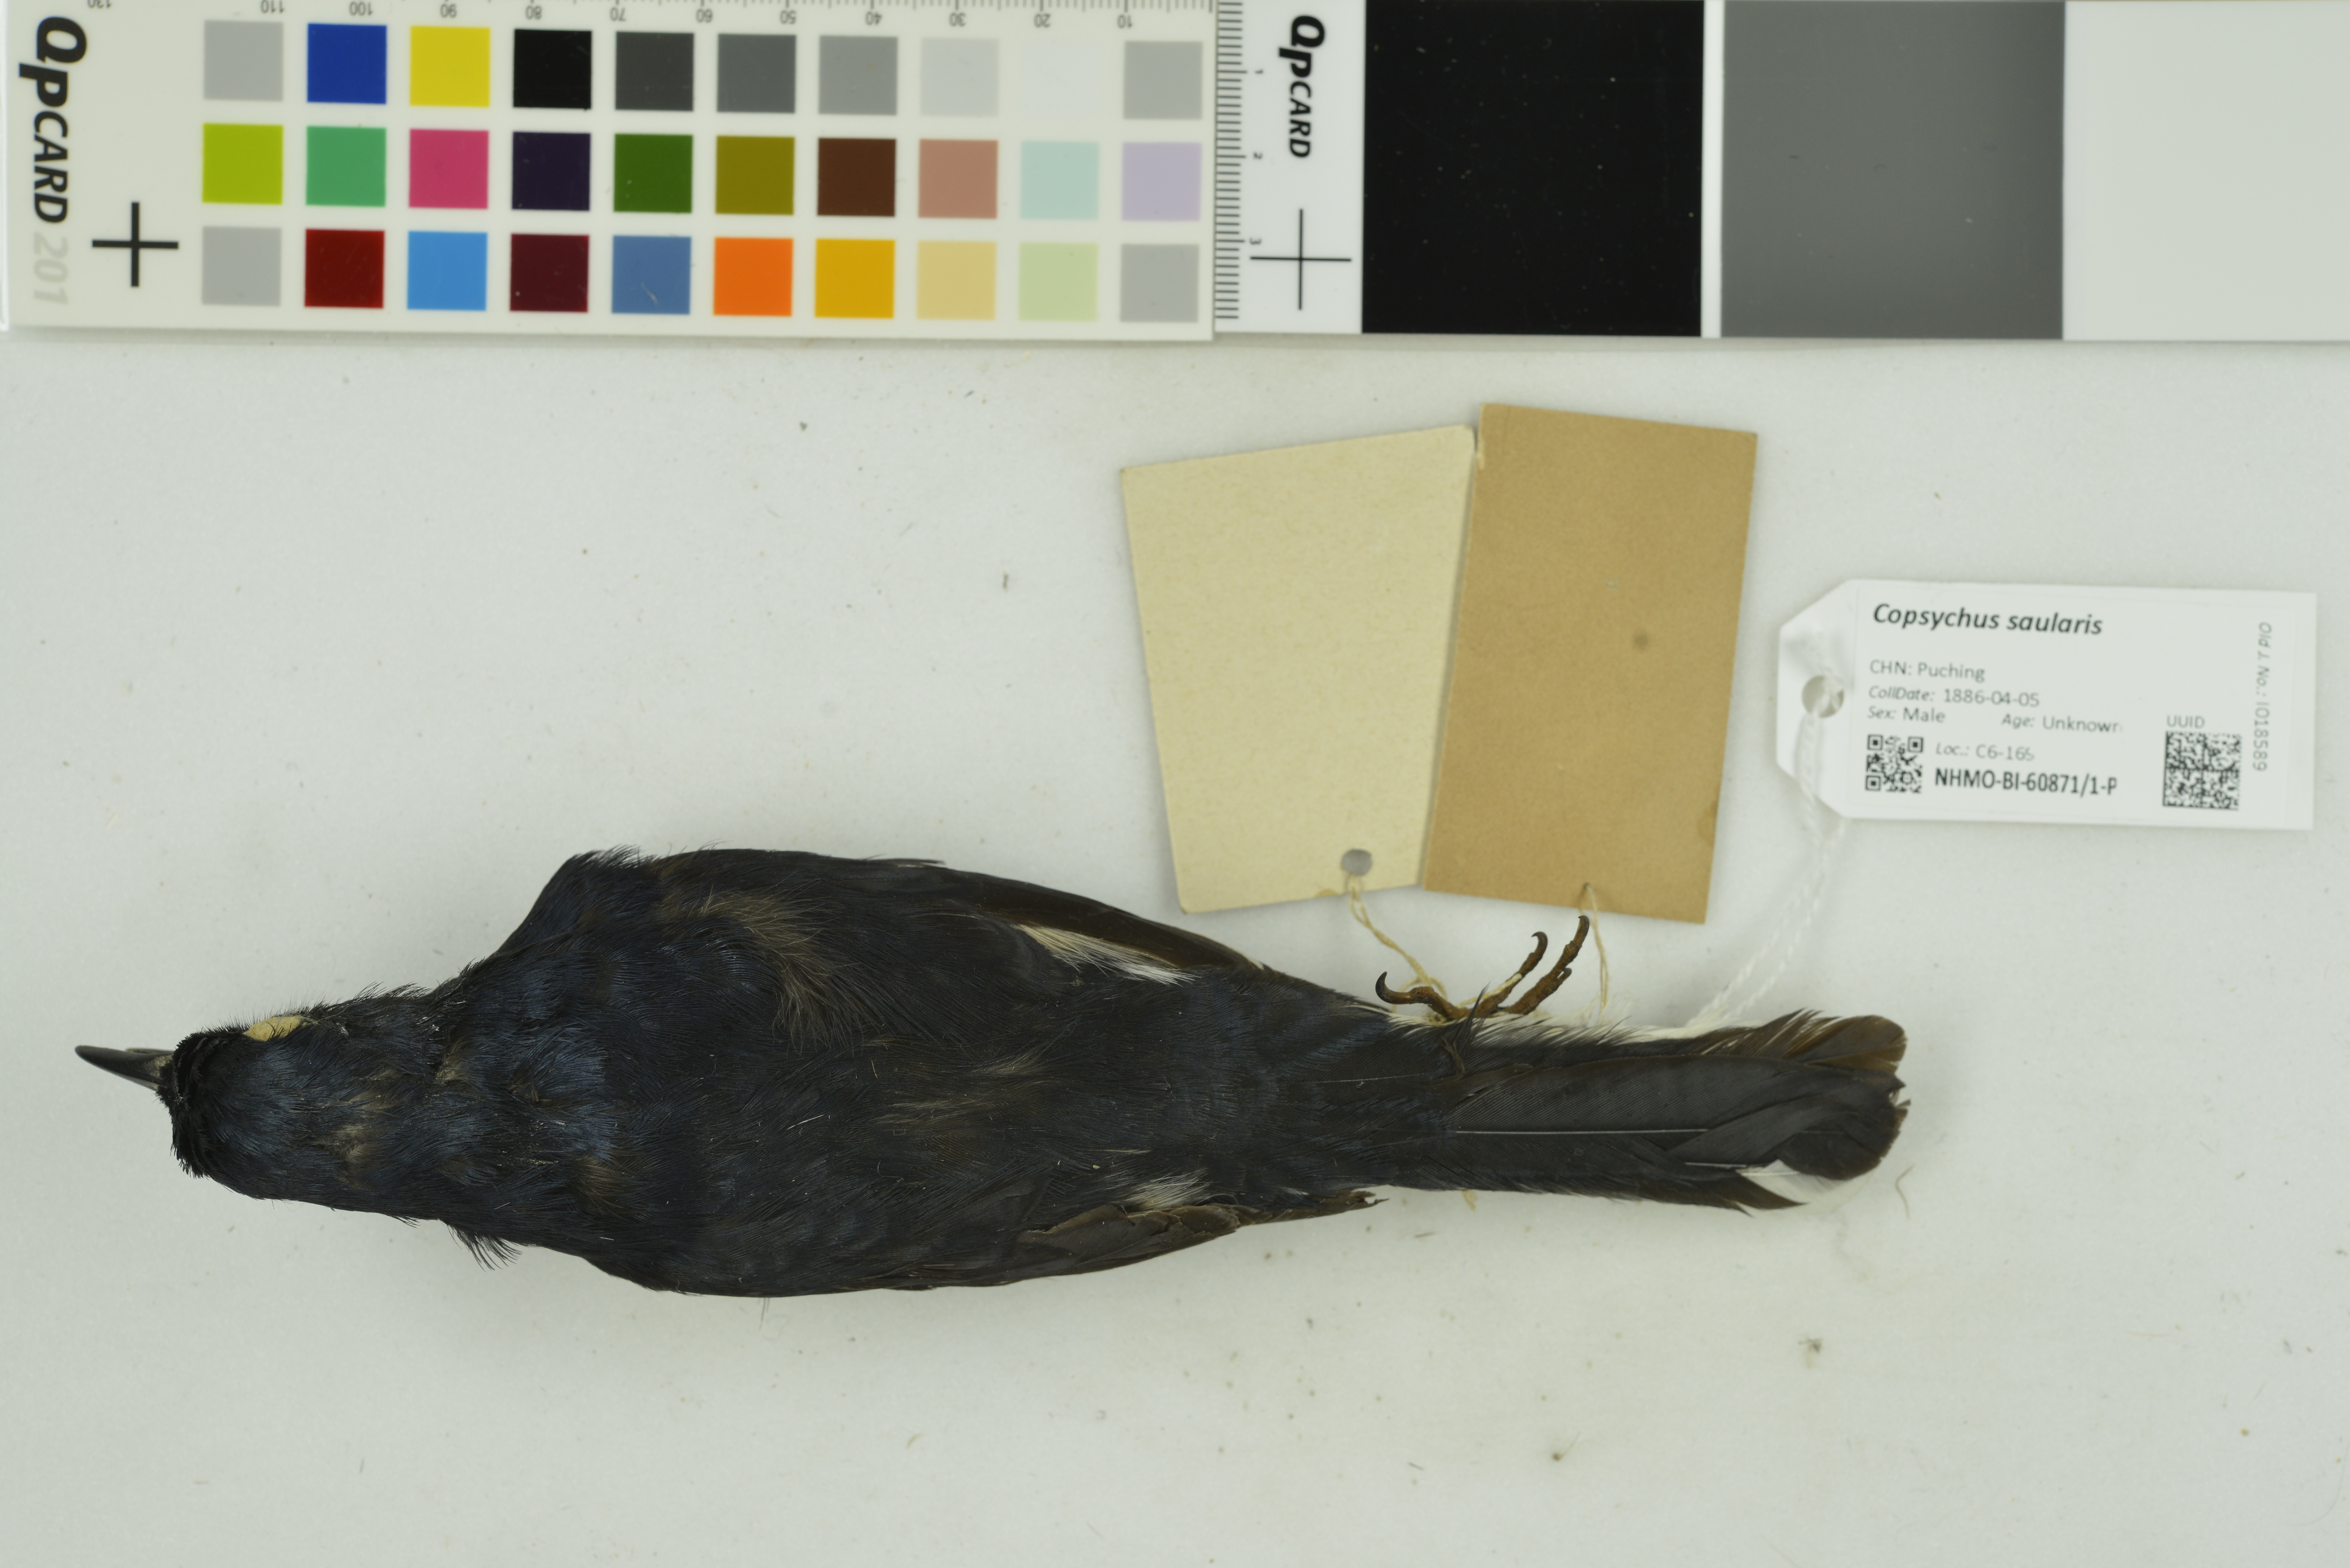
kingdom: Animalia
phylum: Chordata
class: Aves
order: Passeriformes
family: Muscicapidae
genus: Copsychus
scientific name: Copsychus saularis
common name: Oriental magpie-robin
